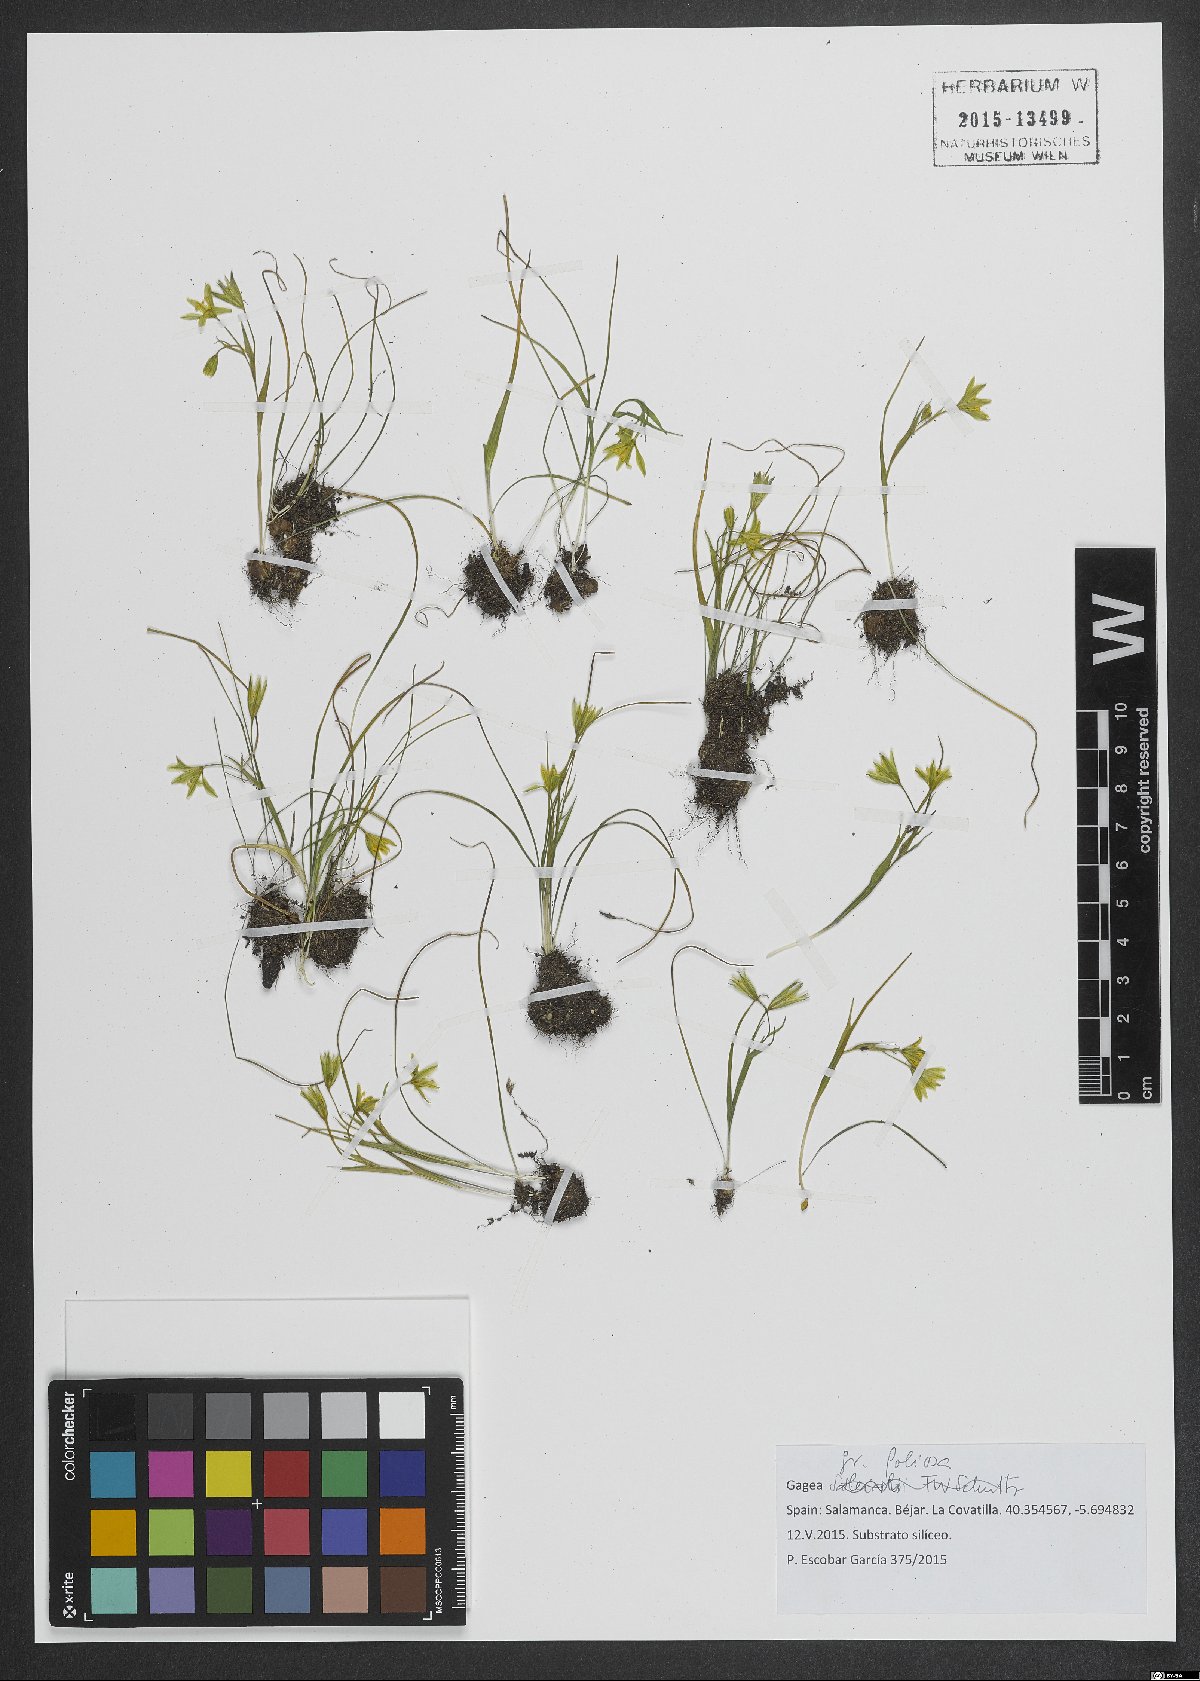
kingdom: Plantae
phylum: Tracheophyta
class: Liliopsida
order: Liliales
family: Liliaceae
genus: Gagea
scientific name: Gagea foliosa
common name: Leafy gagea
